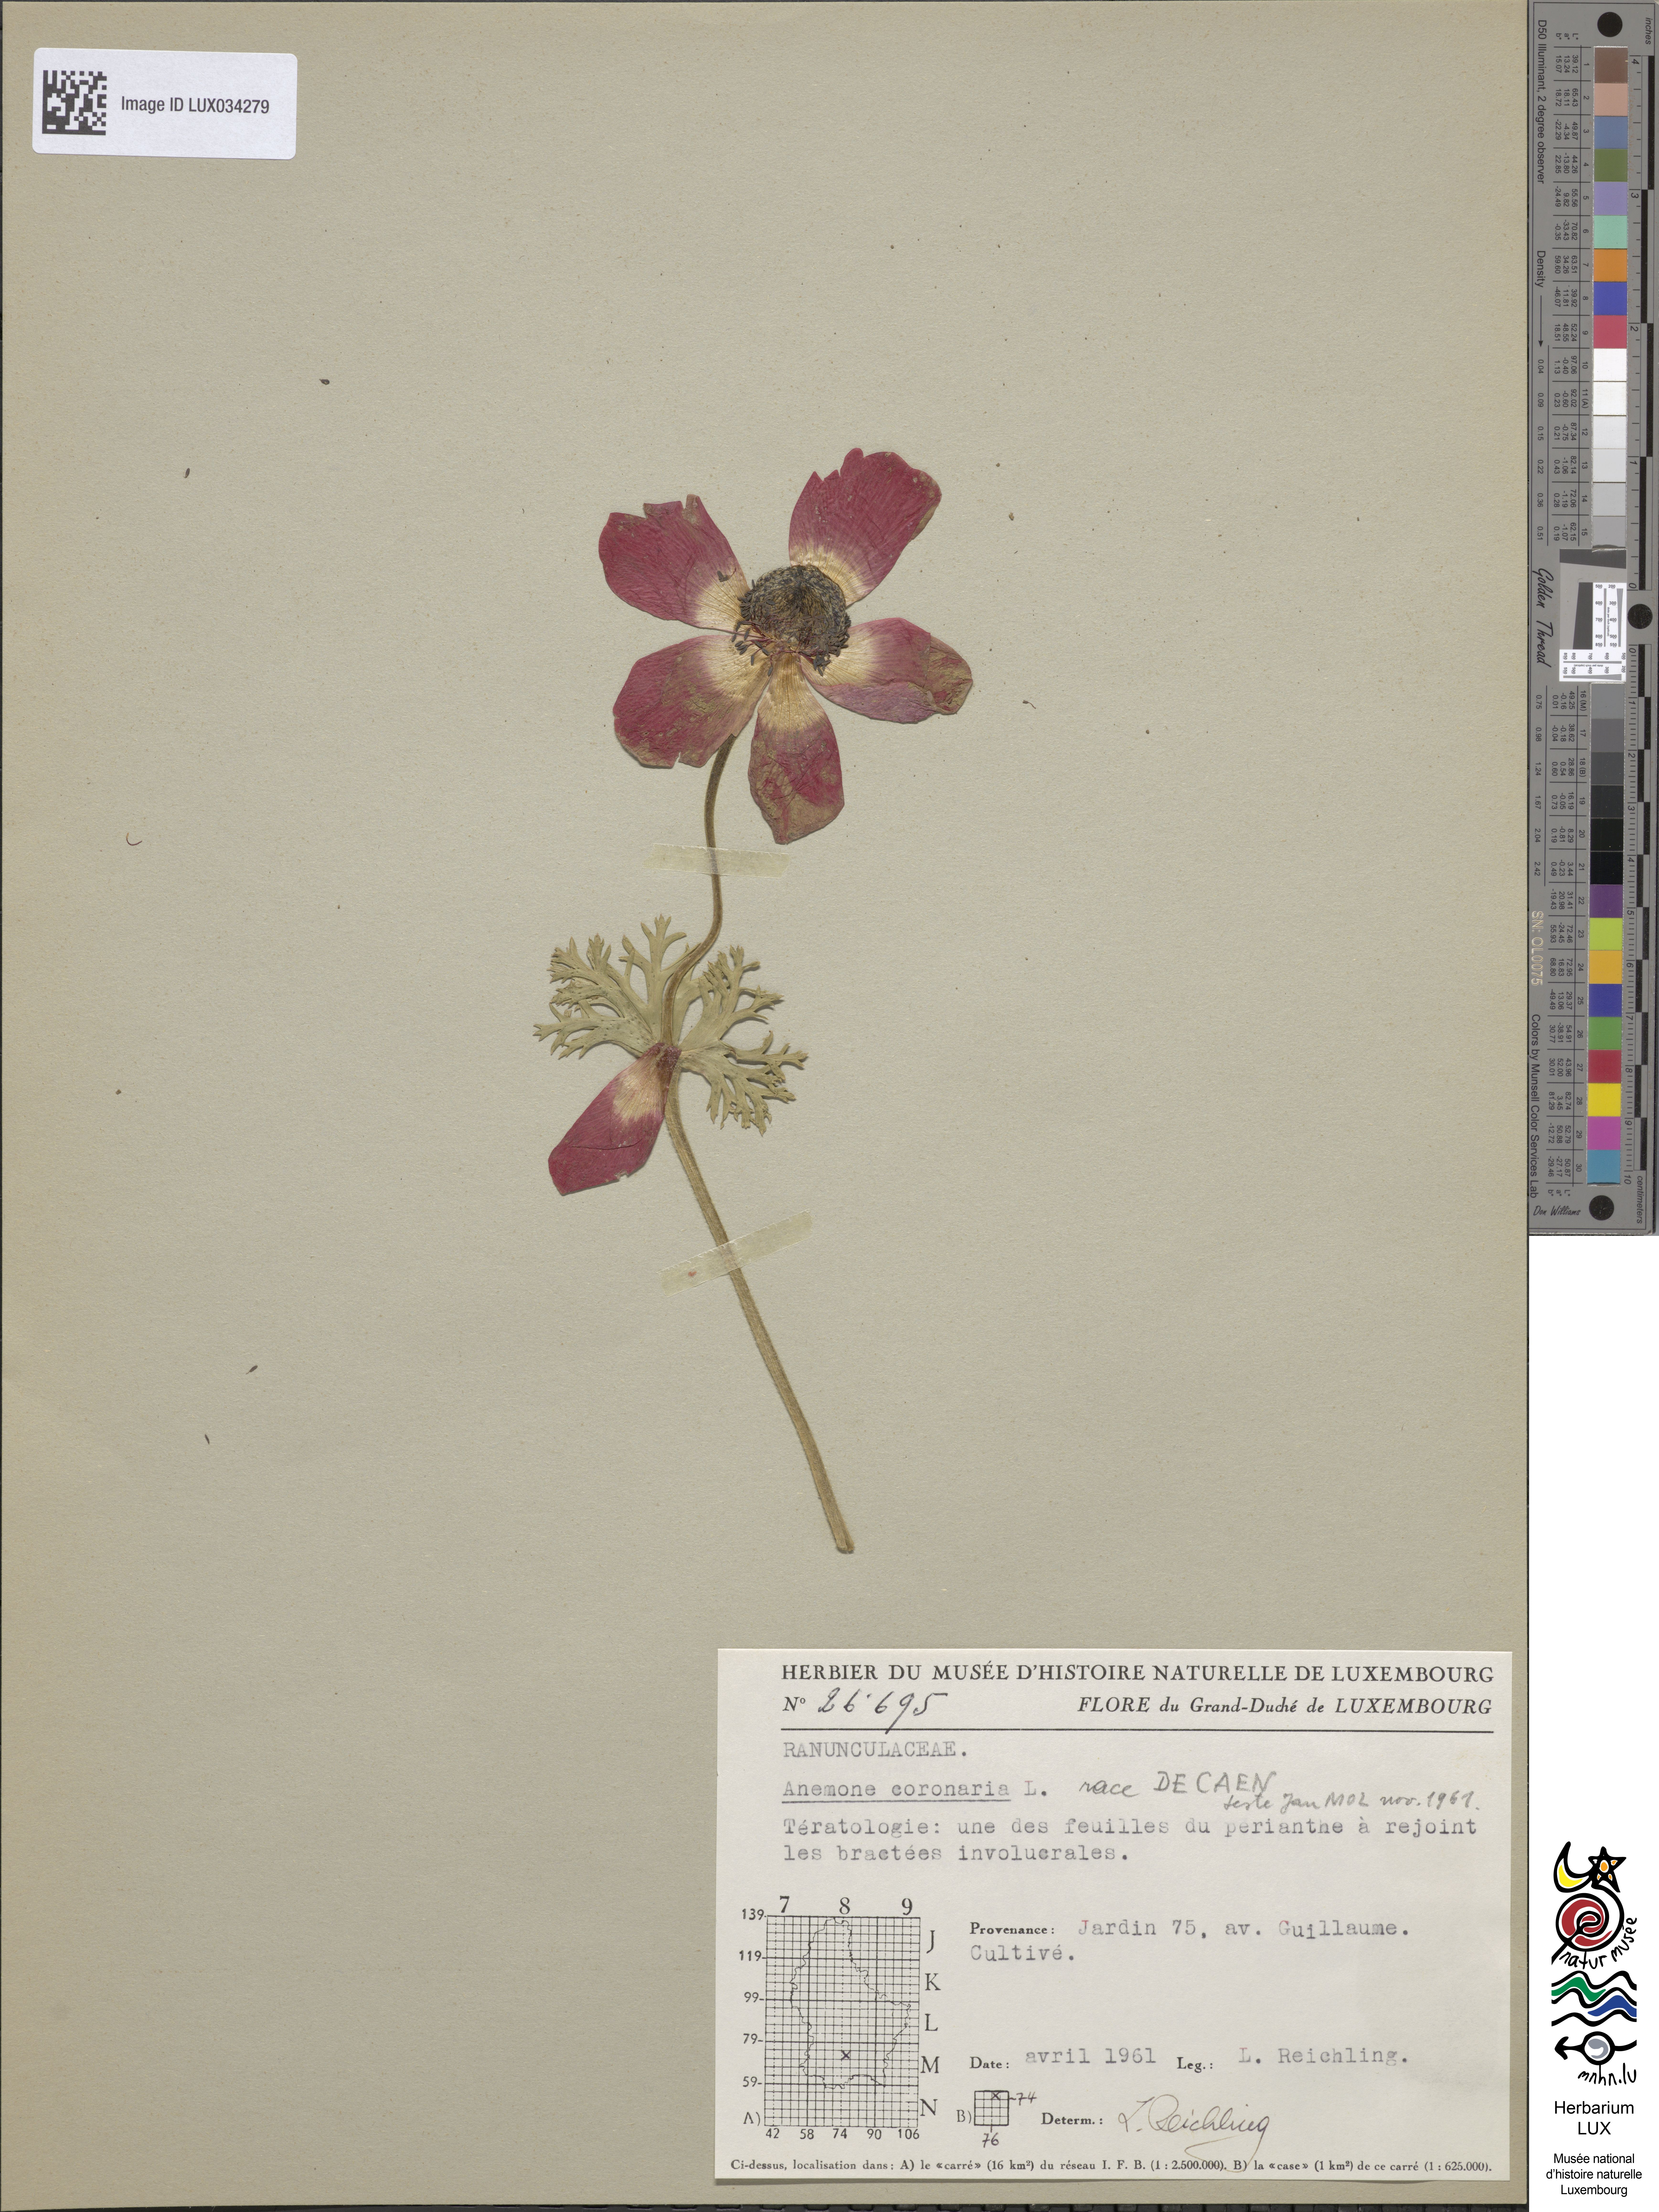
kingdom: Plantae
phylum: Tracheophyta
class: Magnoliopsida
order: Ranunculales
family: Ranunculaceae
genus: Anemone
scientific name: Anemone coronaria
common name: Poppy anemone
